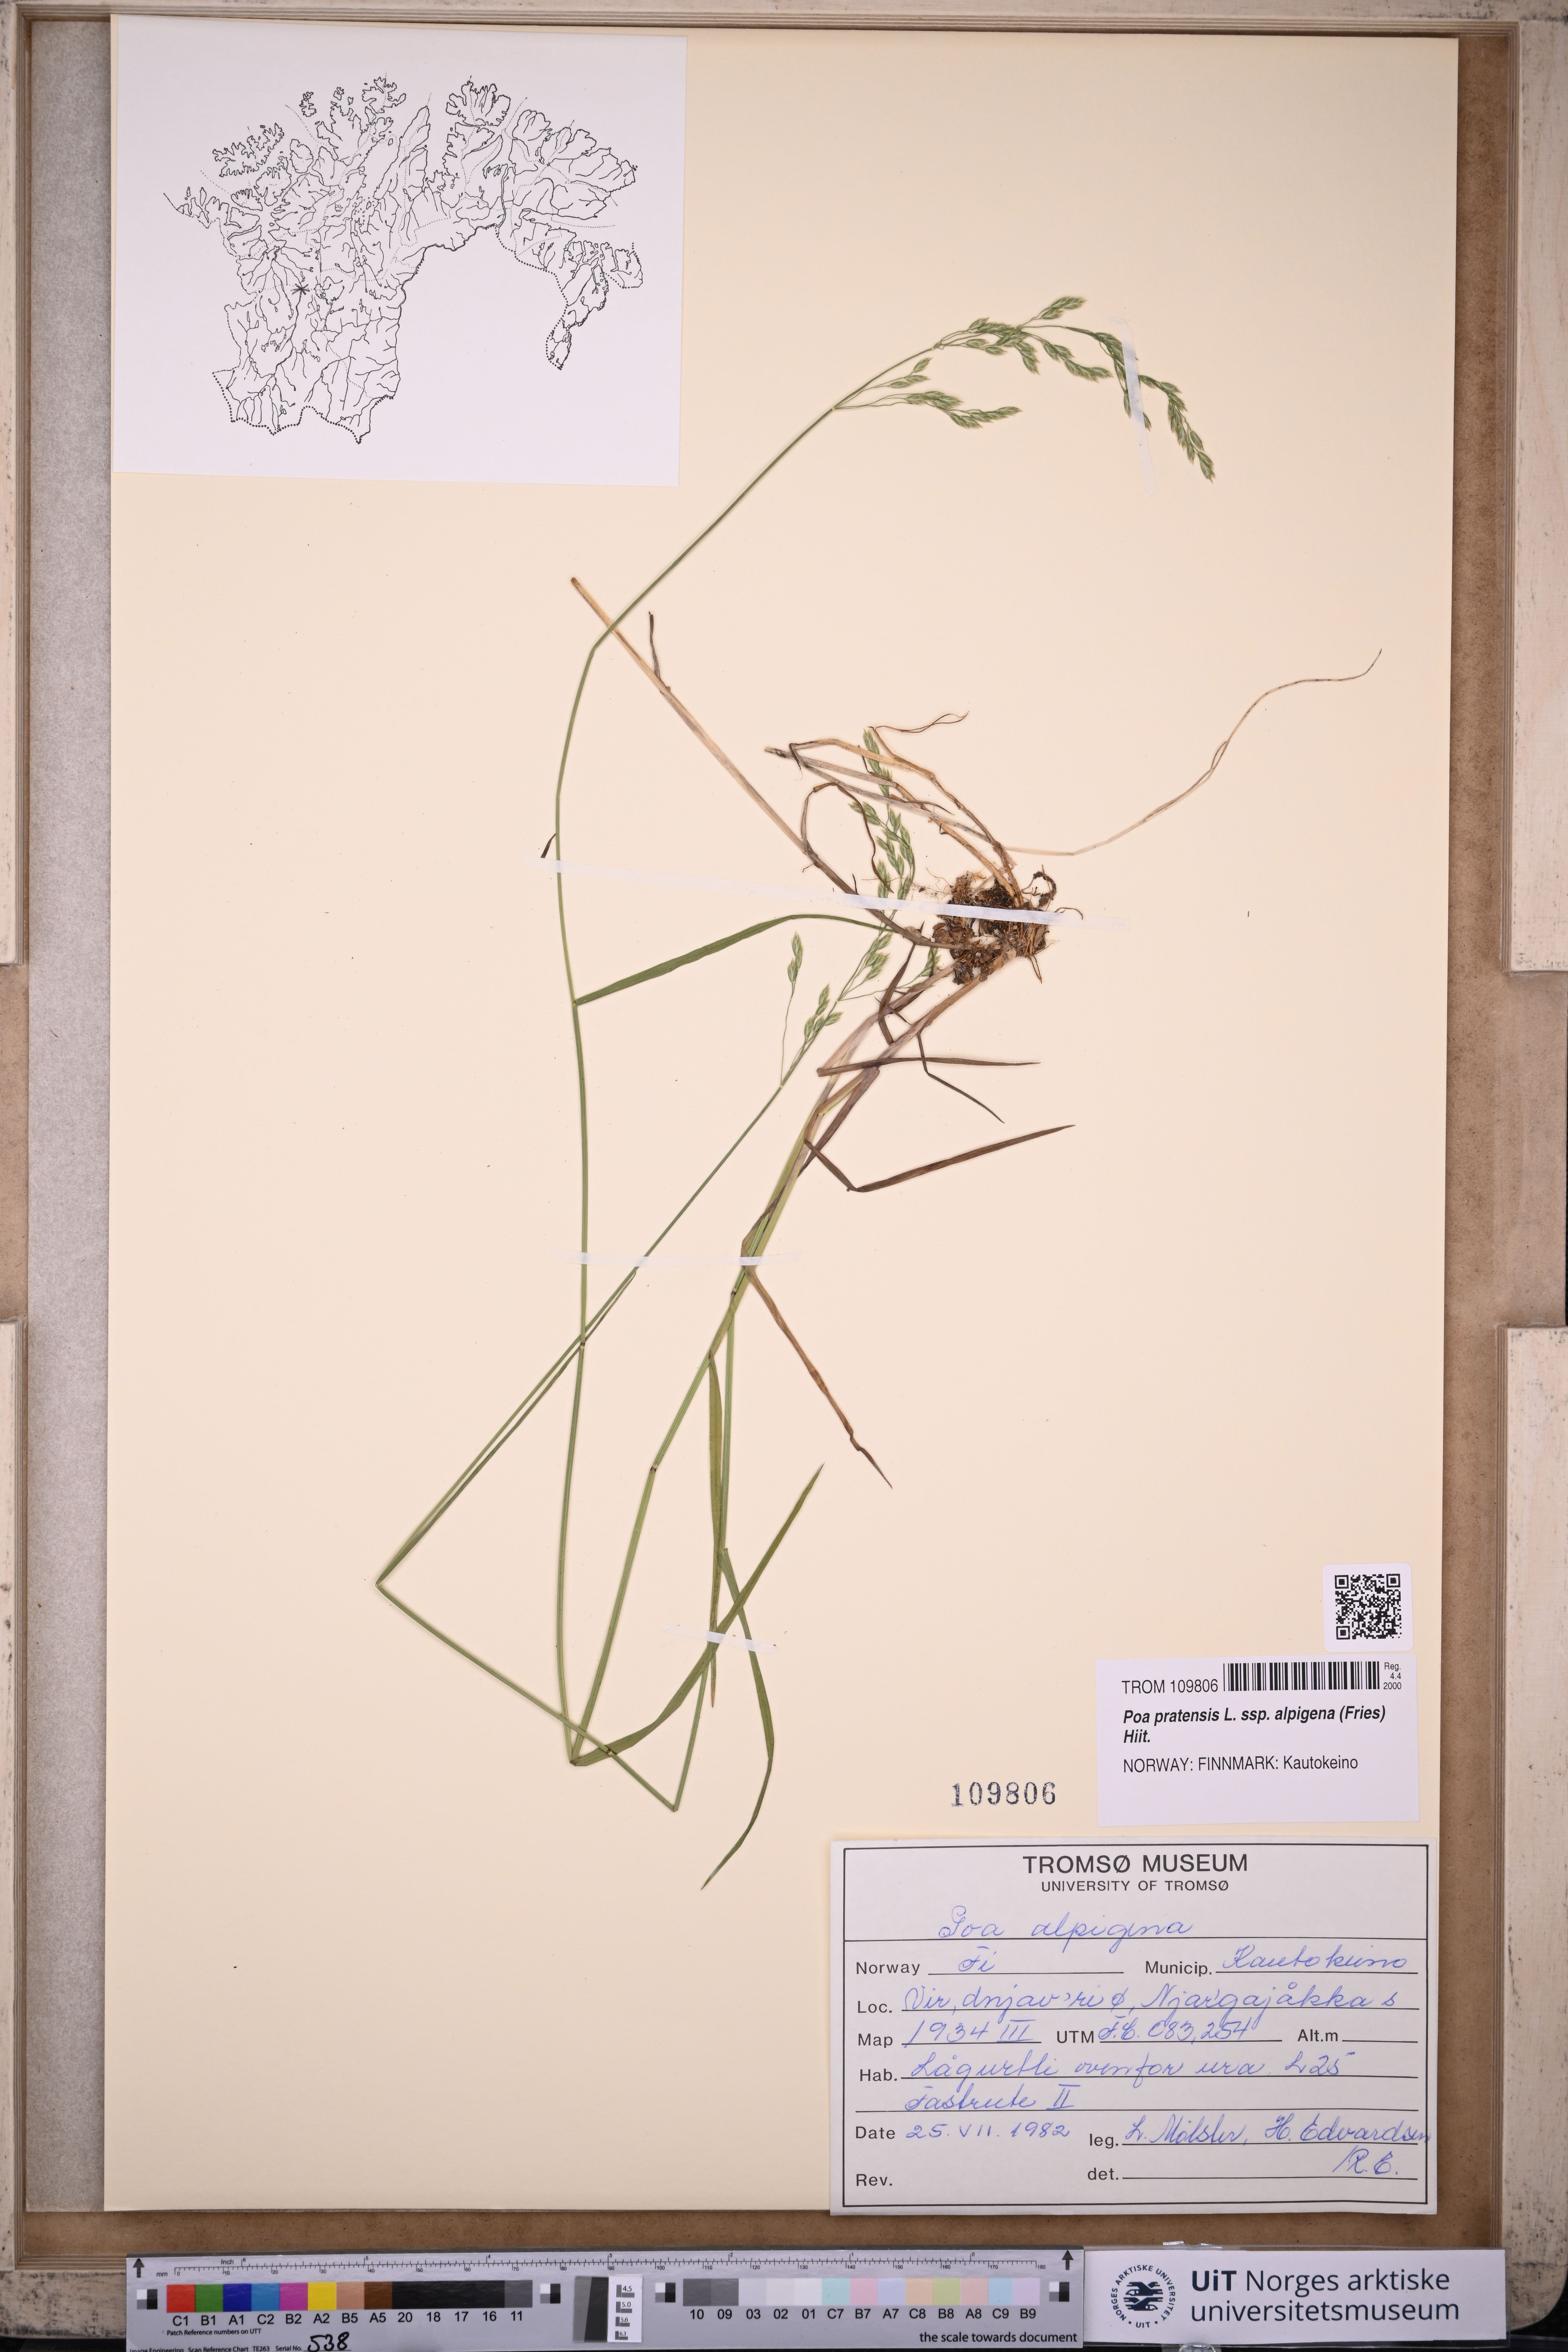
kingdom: Plantae
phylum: Tracheophyta
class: Liliopsida
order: Poales
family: Poaceae
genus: Poa
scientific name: Poa alpigena
